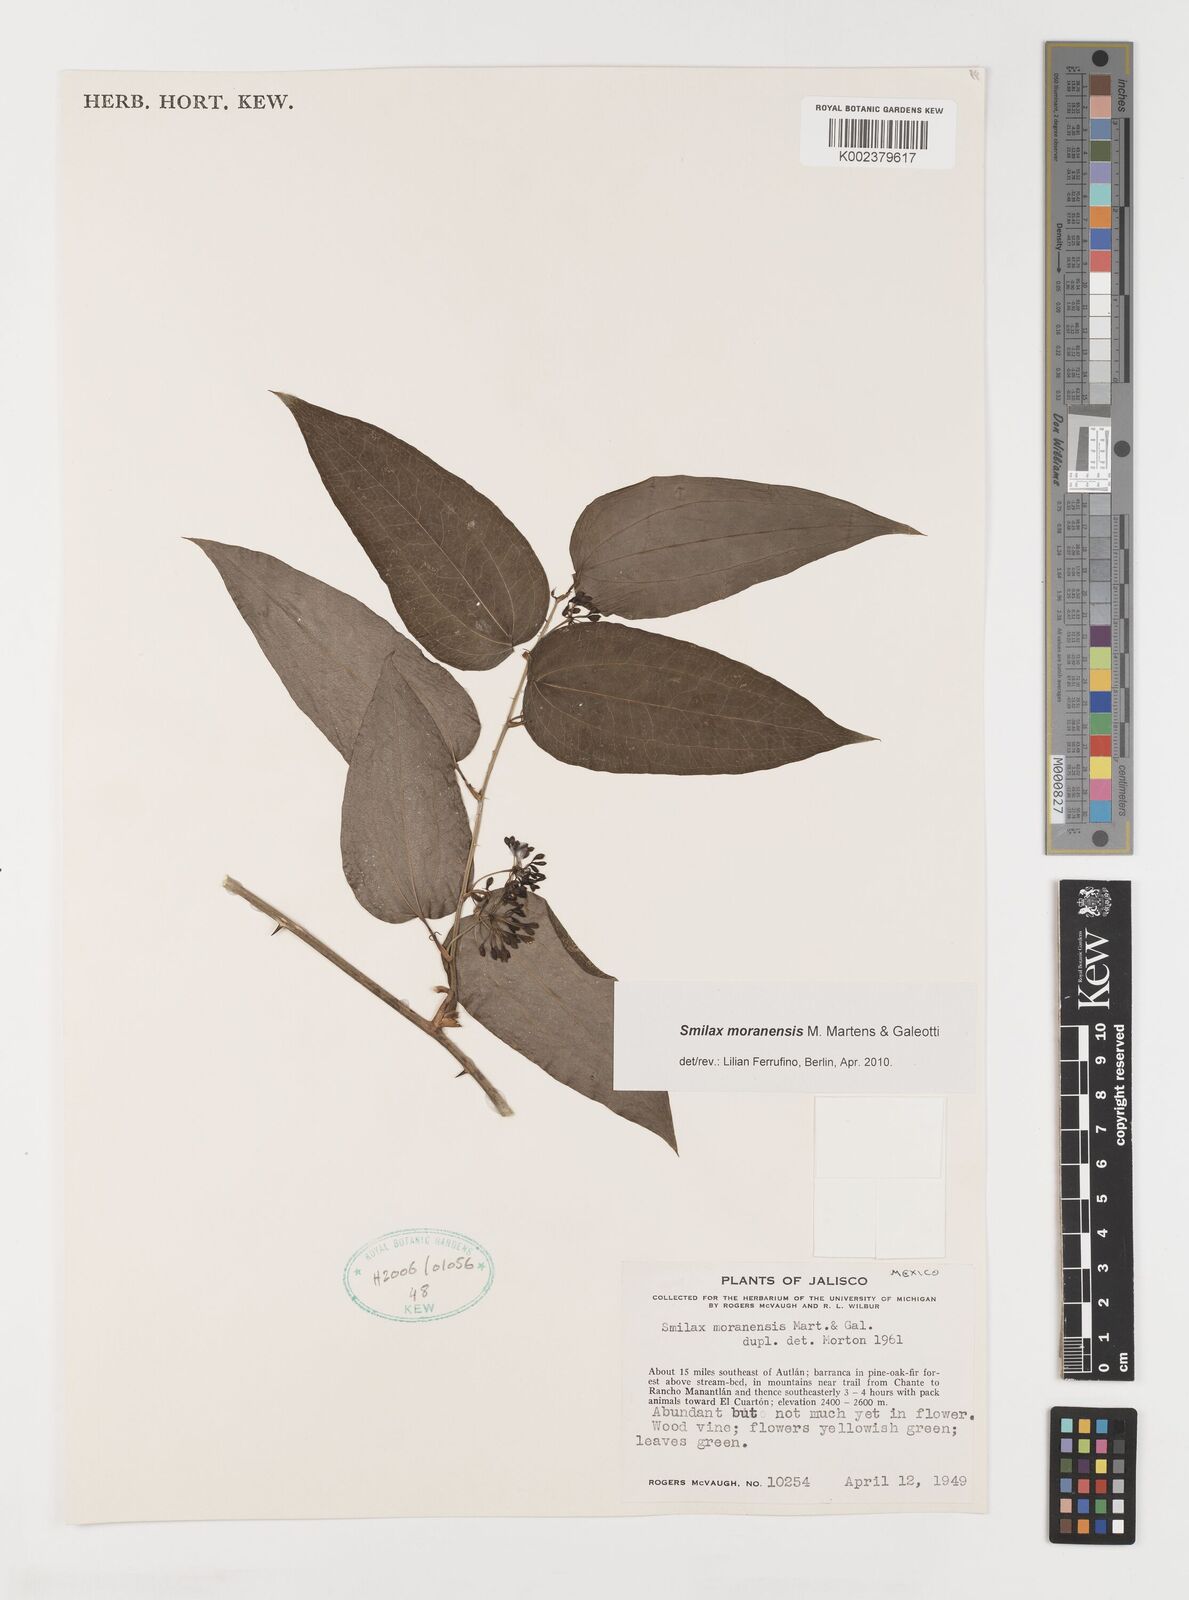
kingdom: Plantae
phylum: Tracheophyta
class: Liliopsida
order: Liliales
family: Smilacaceae
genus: Smilax
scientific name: Smilax moranensis
